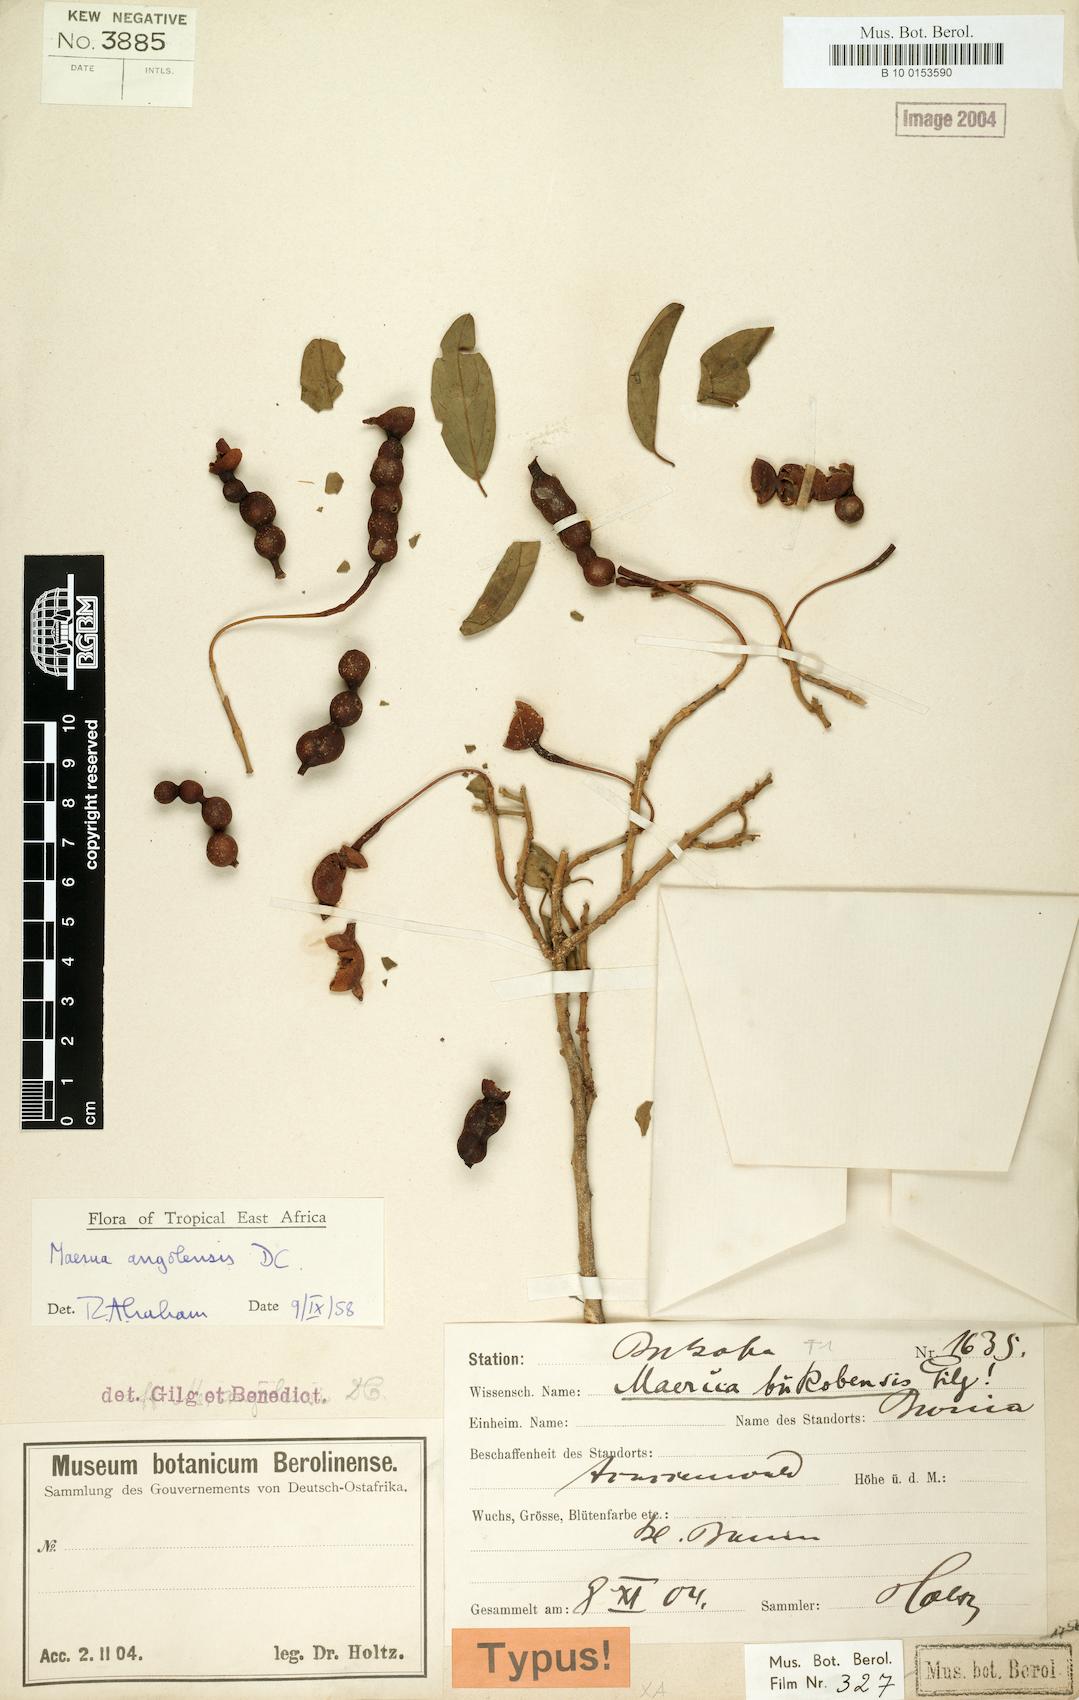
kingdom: Plantae
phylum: Tracheophyta
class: Magnoliopsida
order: Brassicales
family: Capparaceae
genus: Maerua
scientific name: Maerua angolensis
